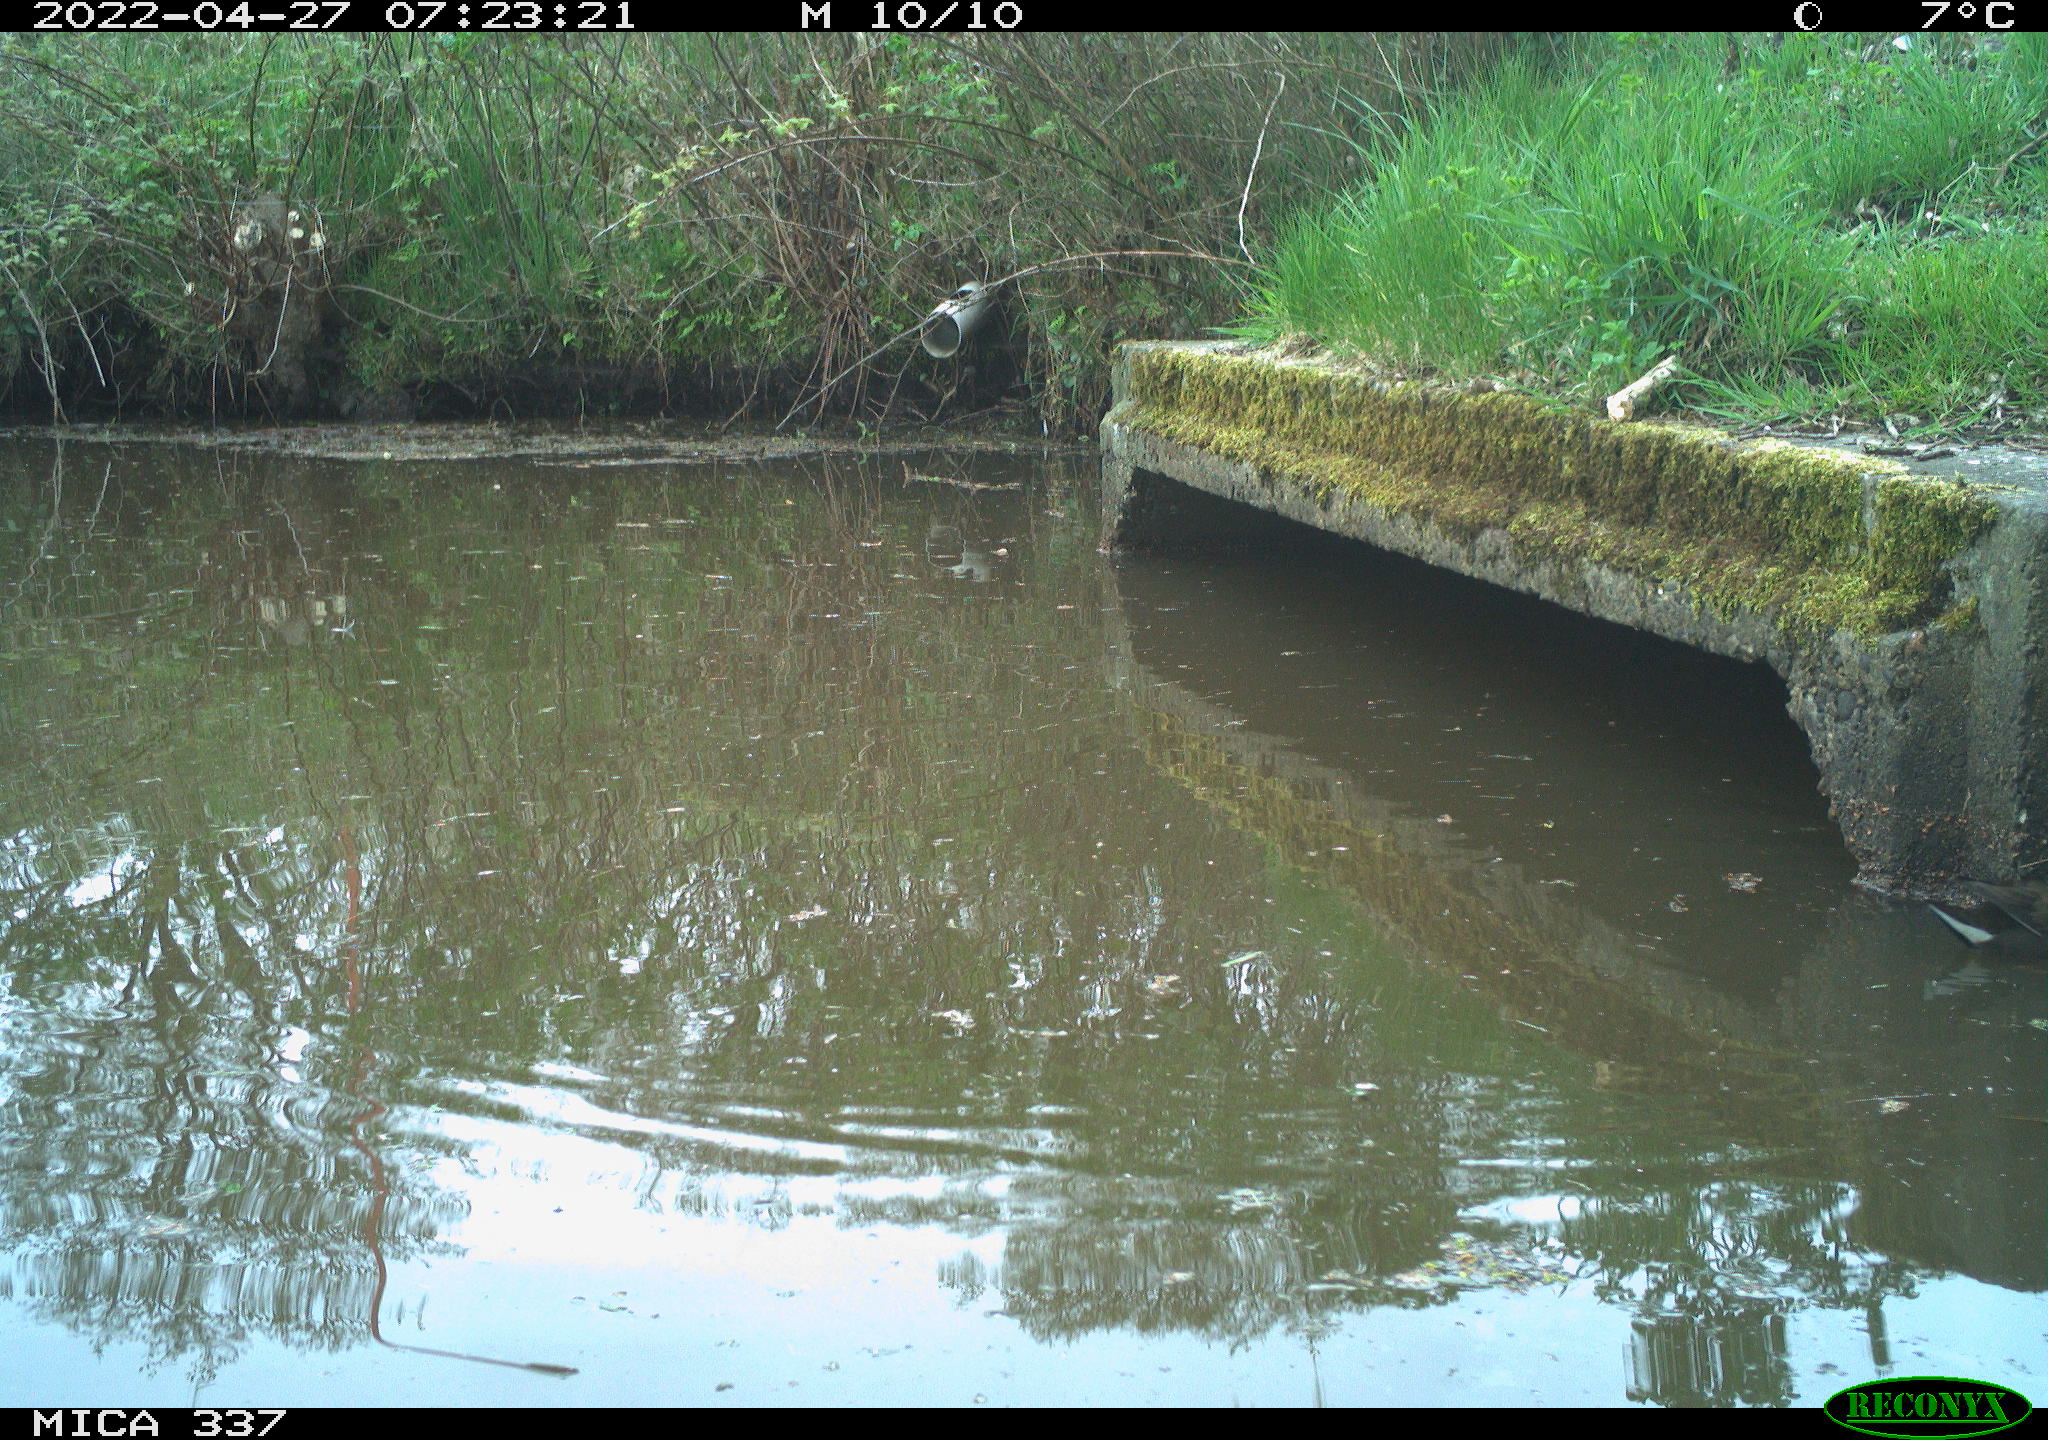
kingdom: Animalia
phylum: Chordata
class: Aves
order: Gruiformes
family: Rallidae
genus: Gallinula
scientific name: Gallinula chloropus
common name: Common moorhen
